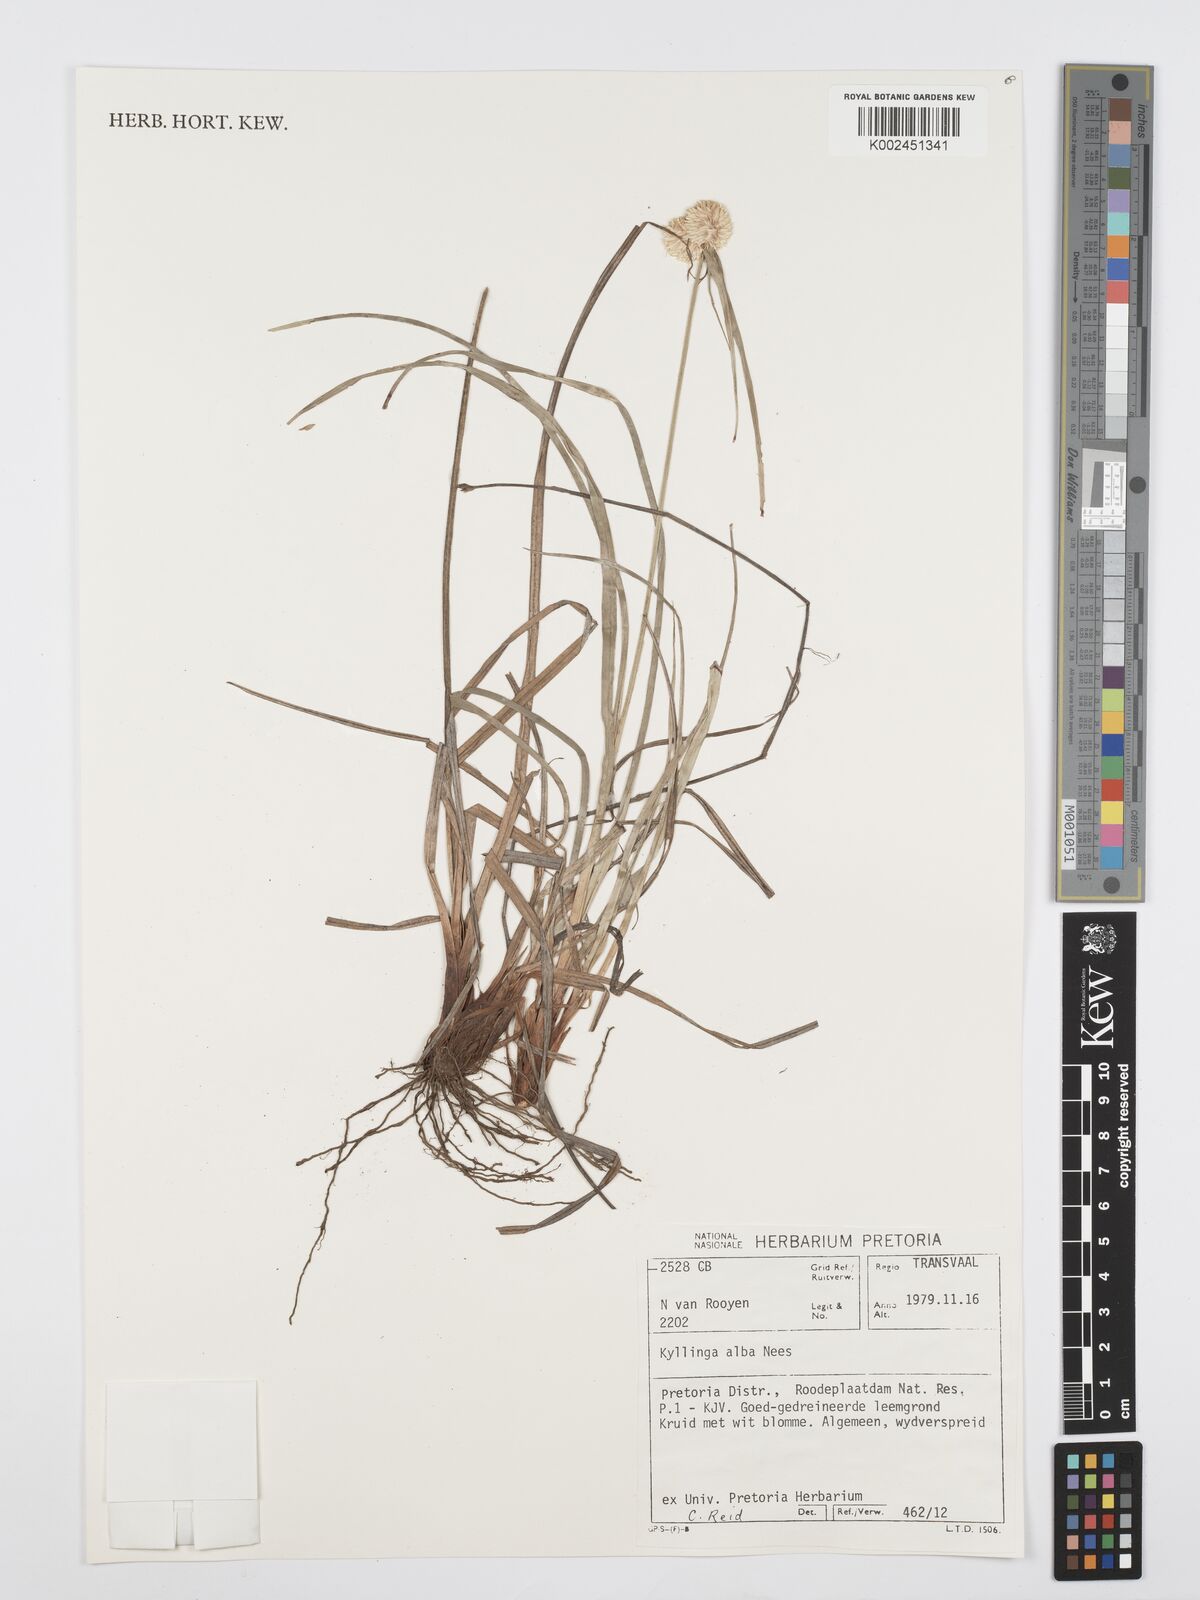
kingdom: Plantae
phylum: Tracheophyta
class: Liliopsida
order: Poales
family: Cyperaceae
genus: Cyperus
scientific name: Cyperus
